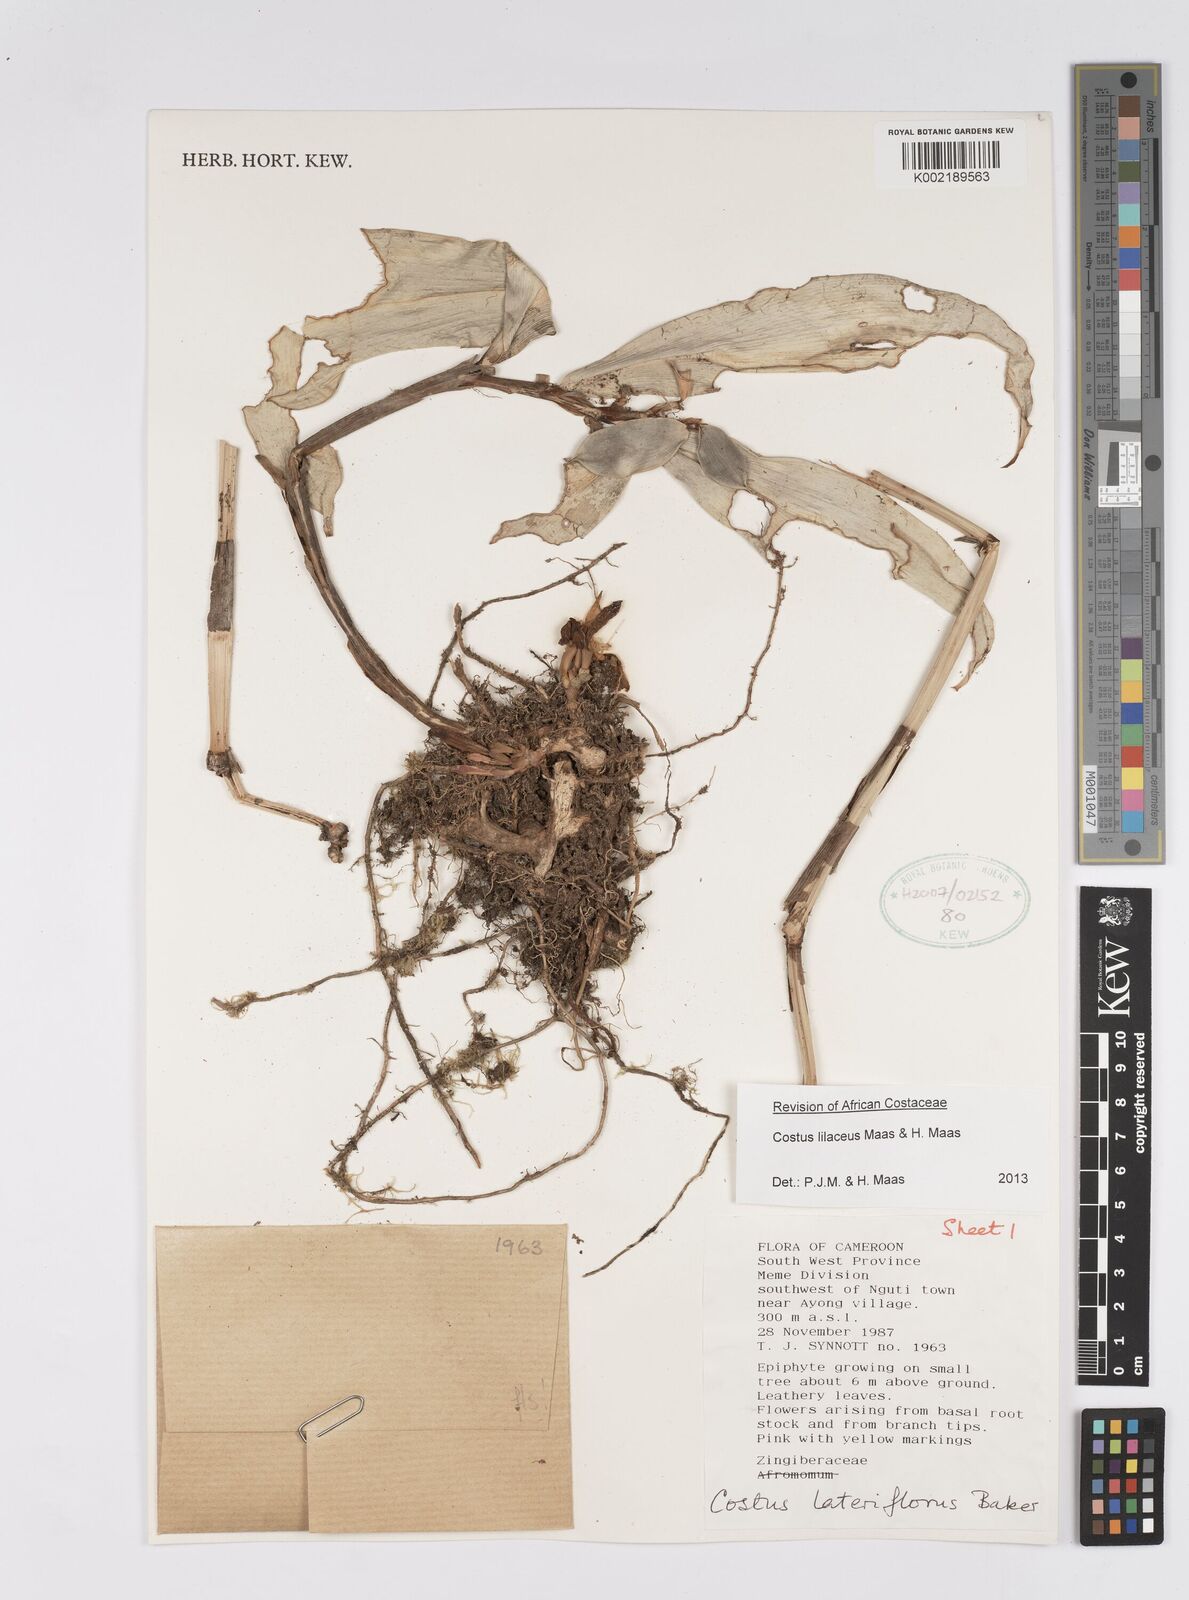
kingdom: Plantae
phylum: Tracheophyta
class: Liliopsida
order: Zingiberales
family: Costaceae
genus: Costus
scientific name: Costus lilaceus
